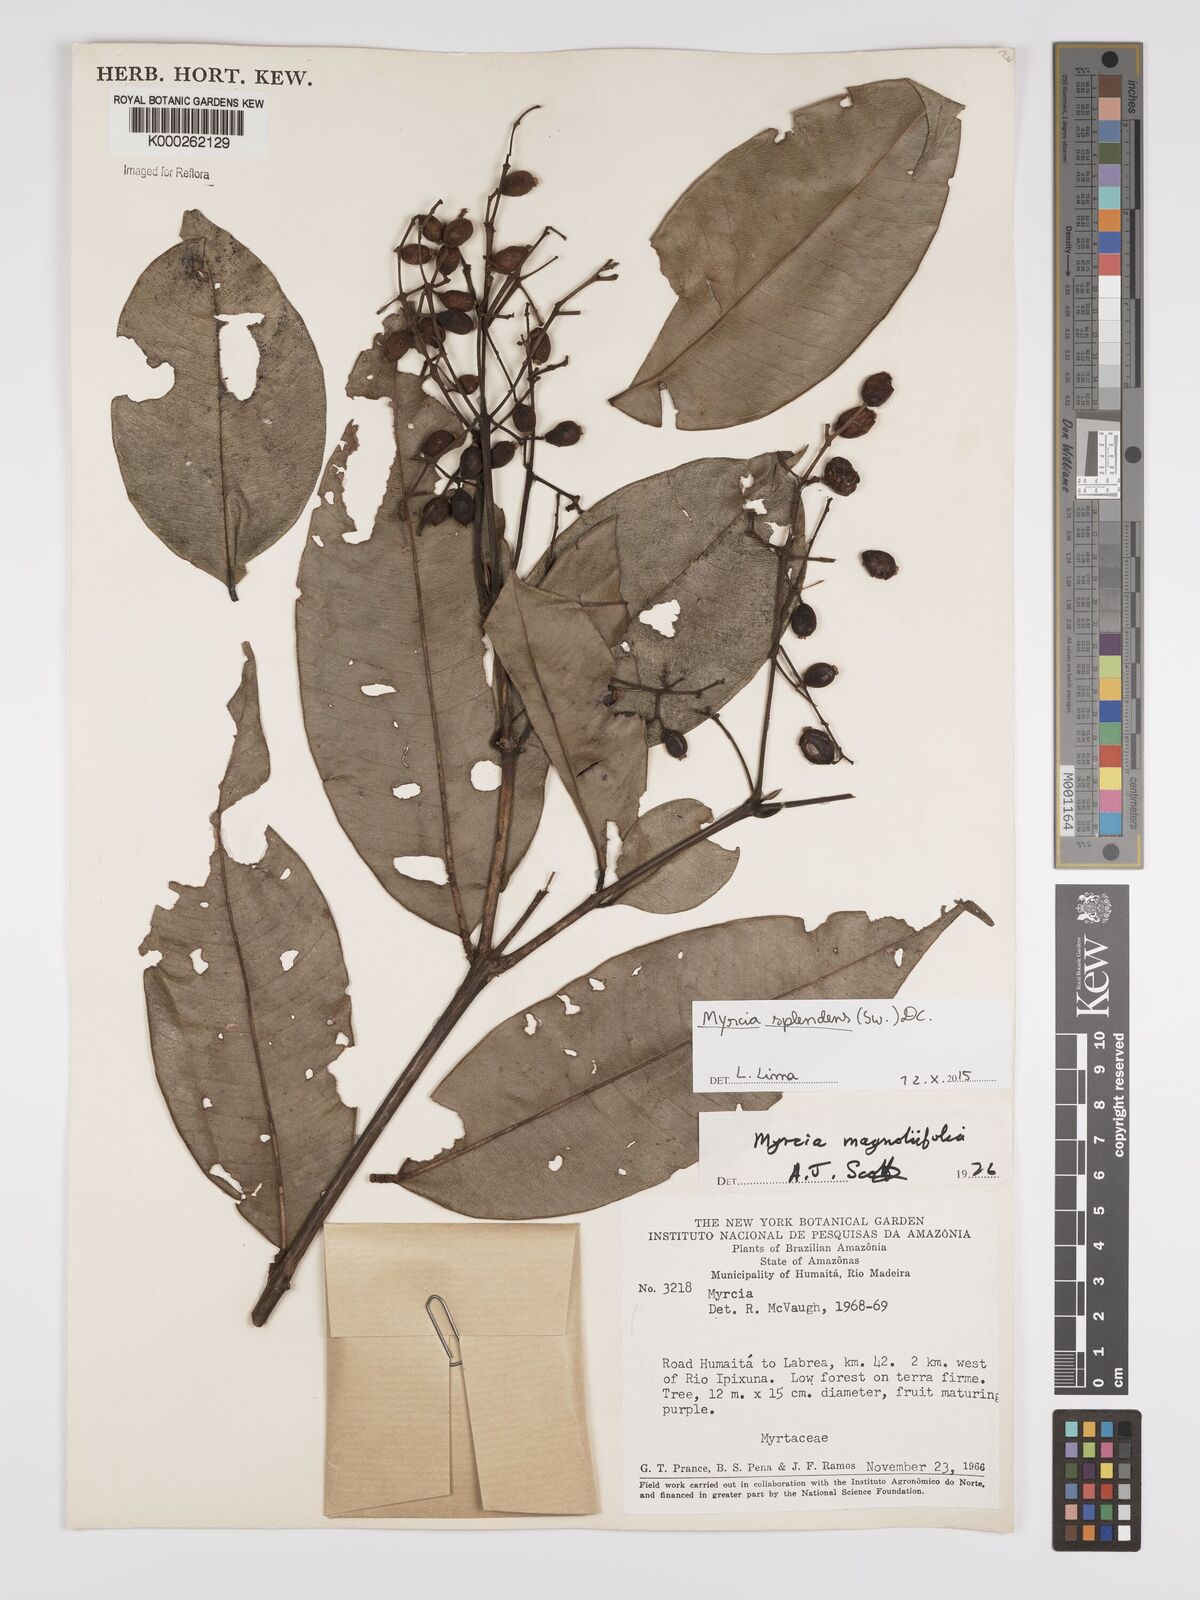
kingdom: Plantae
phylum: Tracheophyta
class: Magnoliopsida
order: Myrtales
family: Myrtaceae
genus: Myrcia
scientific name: Myrcia splendens
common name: Surinam cherry
